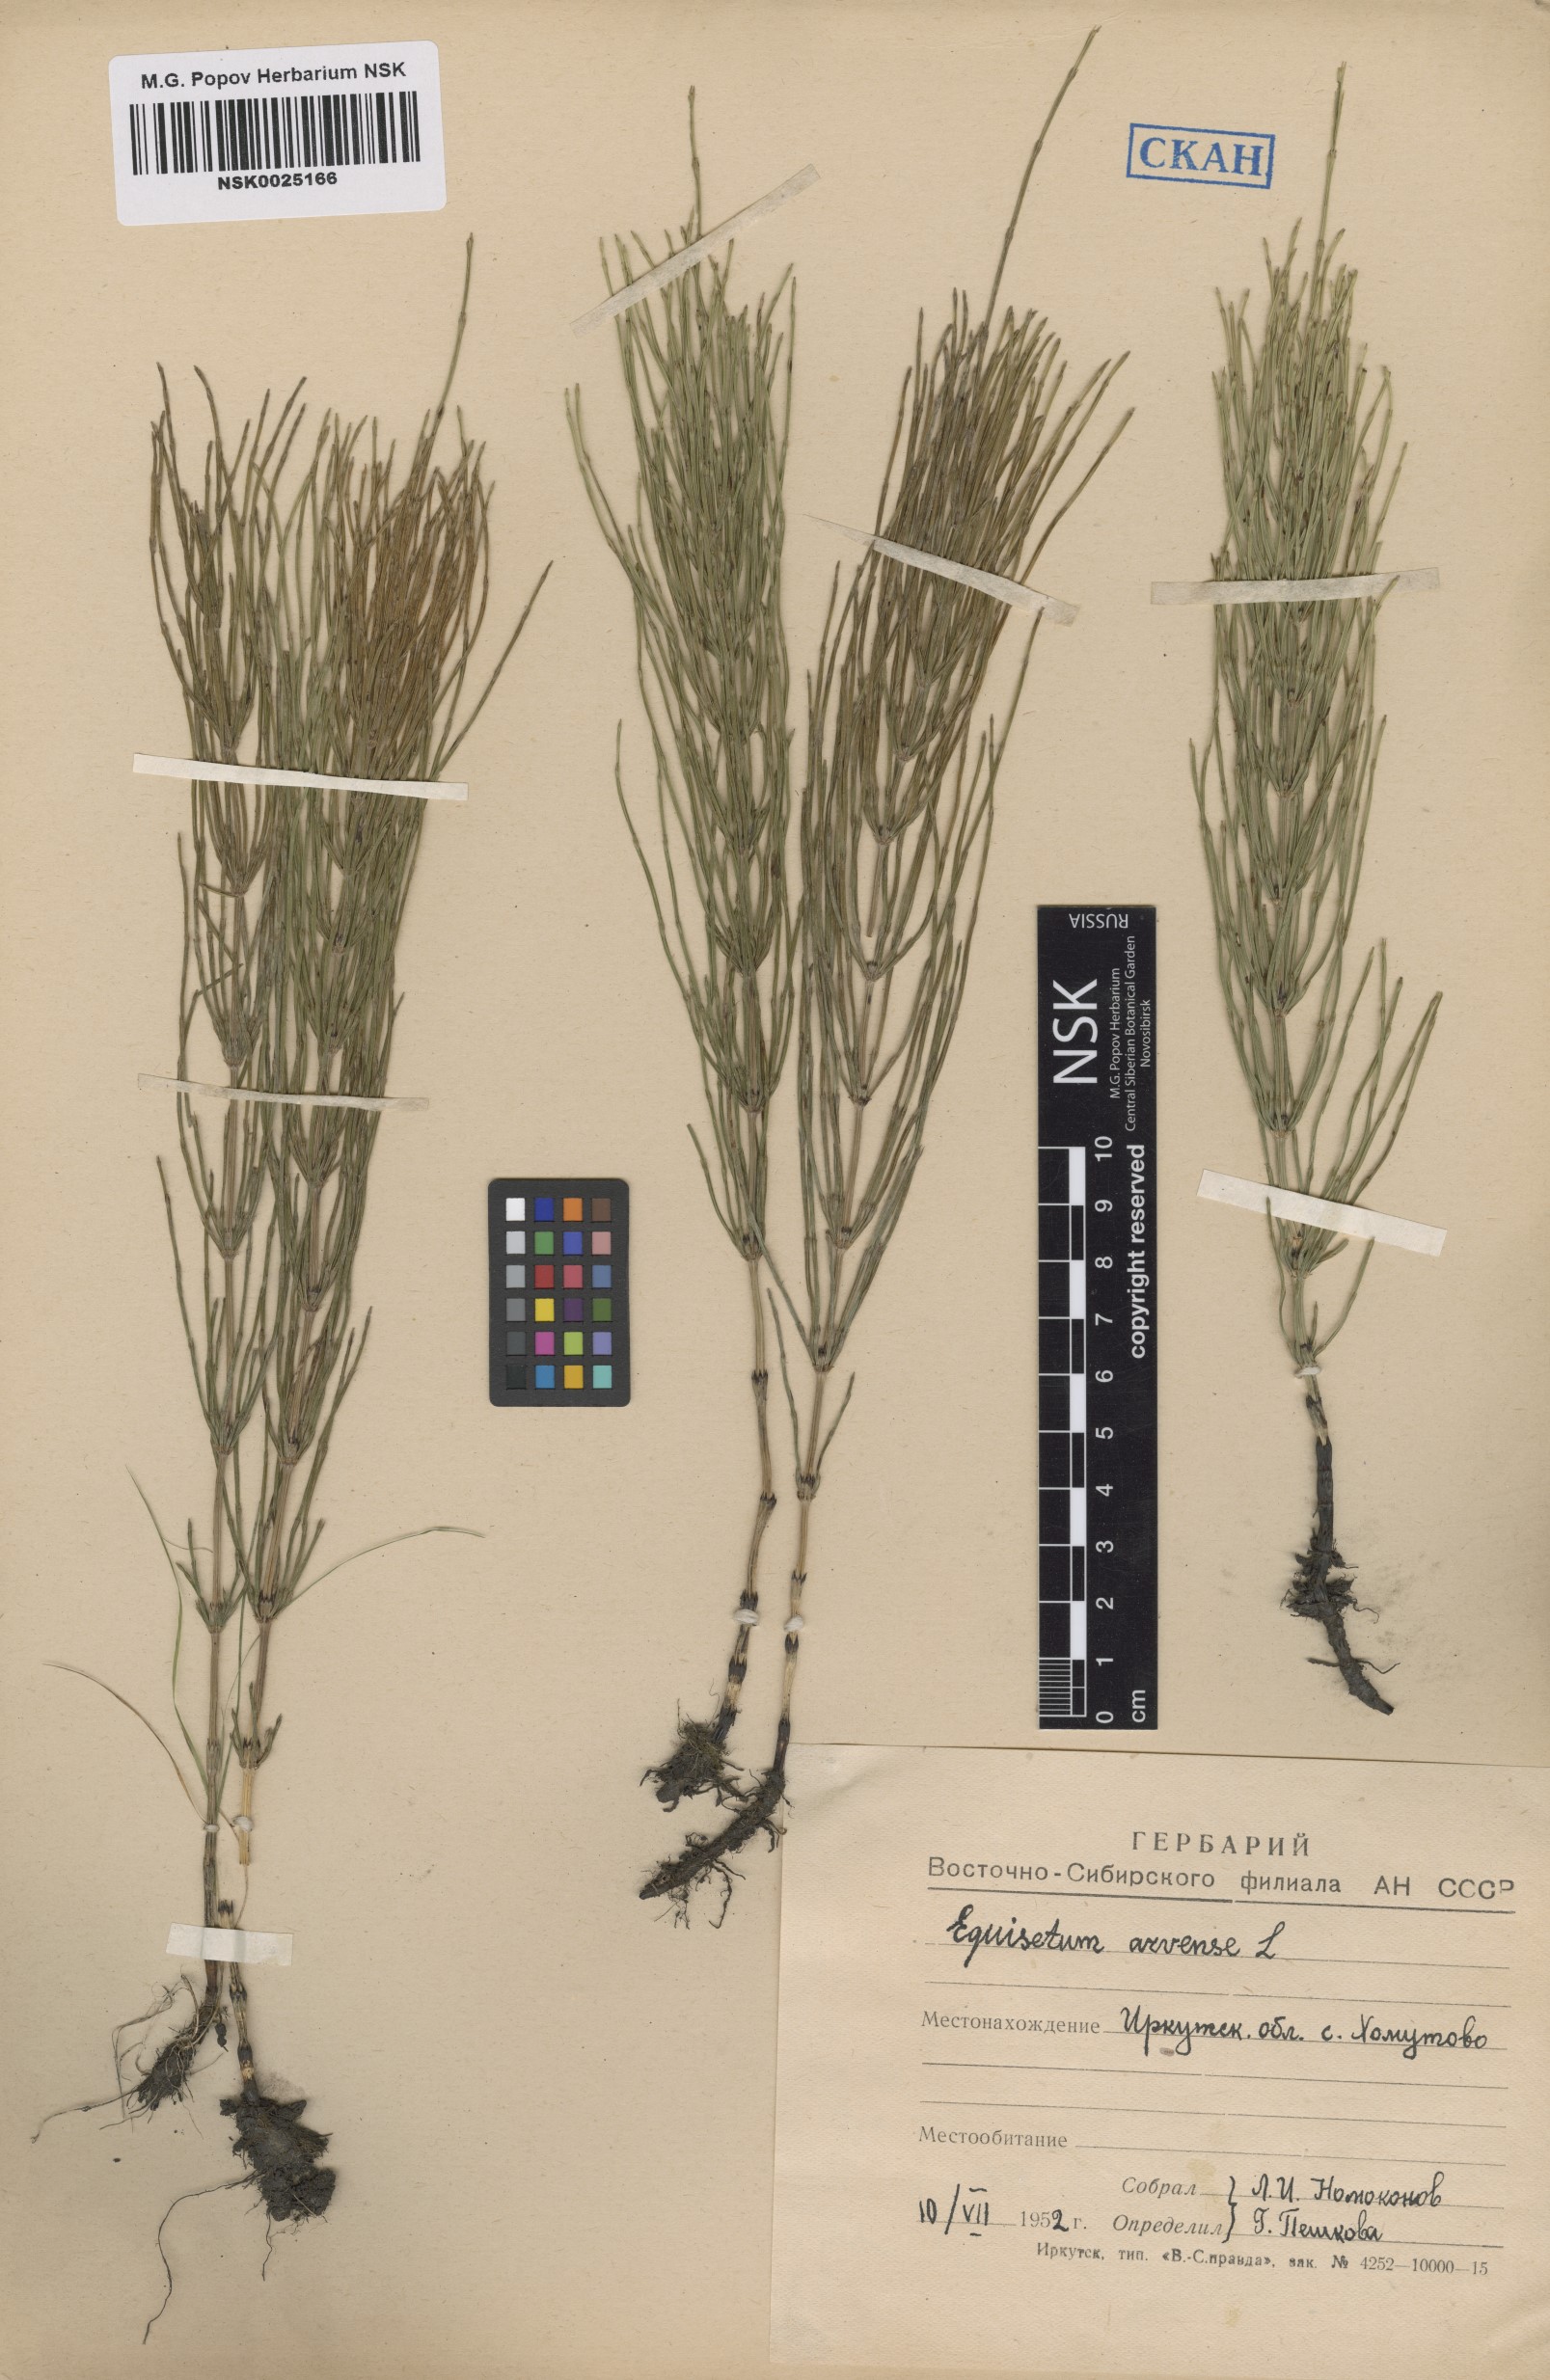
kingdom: Plantae
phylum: Tracheophyta
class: Polypodiopsida
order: Equisetales
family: Equisetaceae
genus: Equisetum
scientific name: Equisetum arvense
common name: Field horsetail
